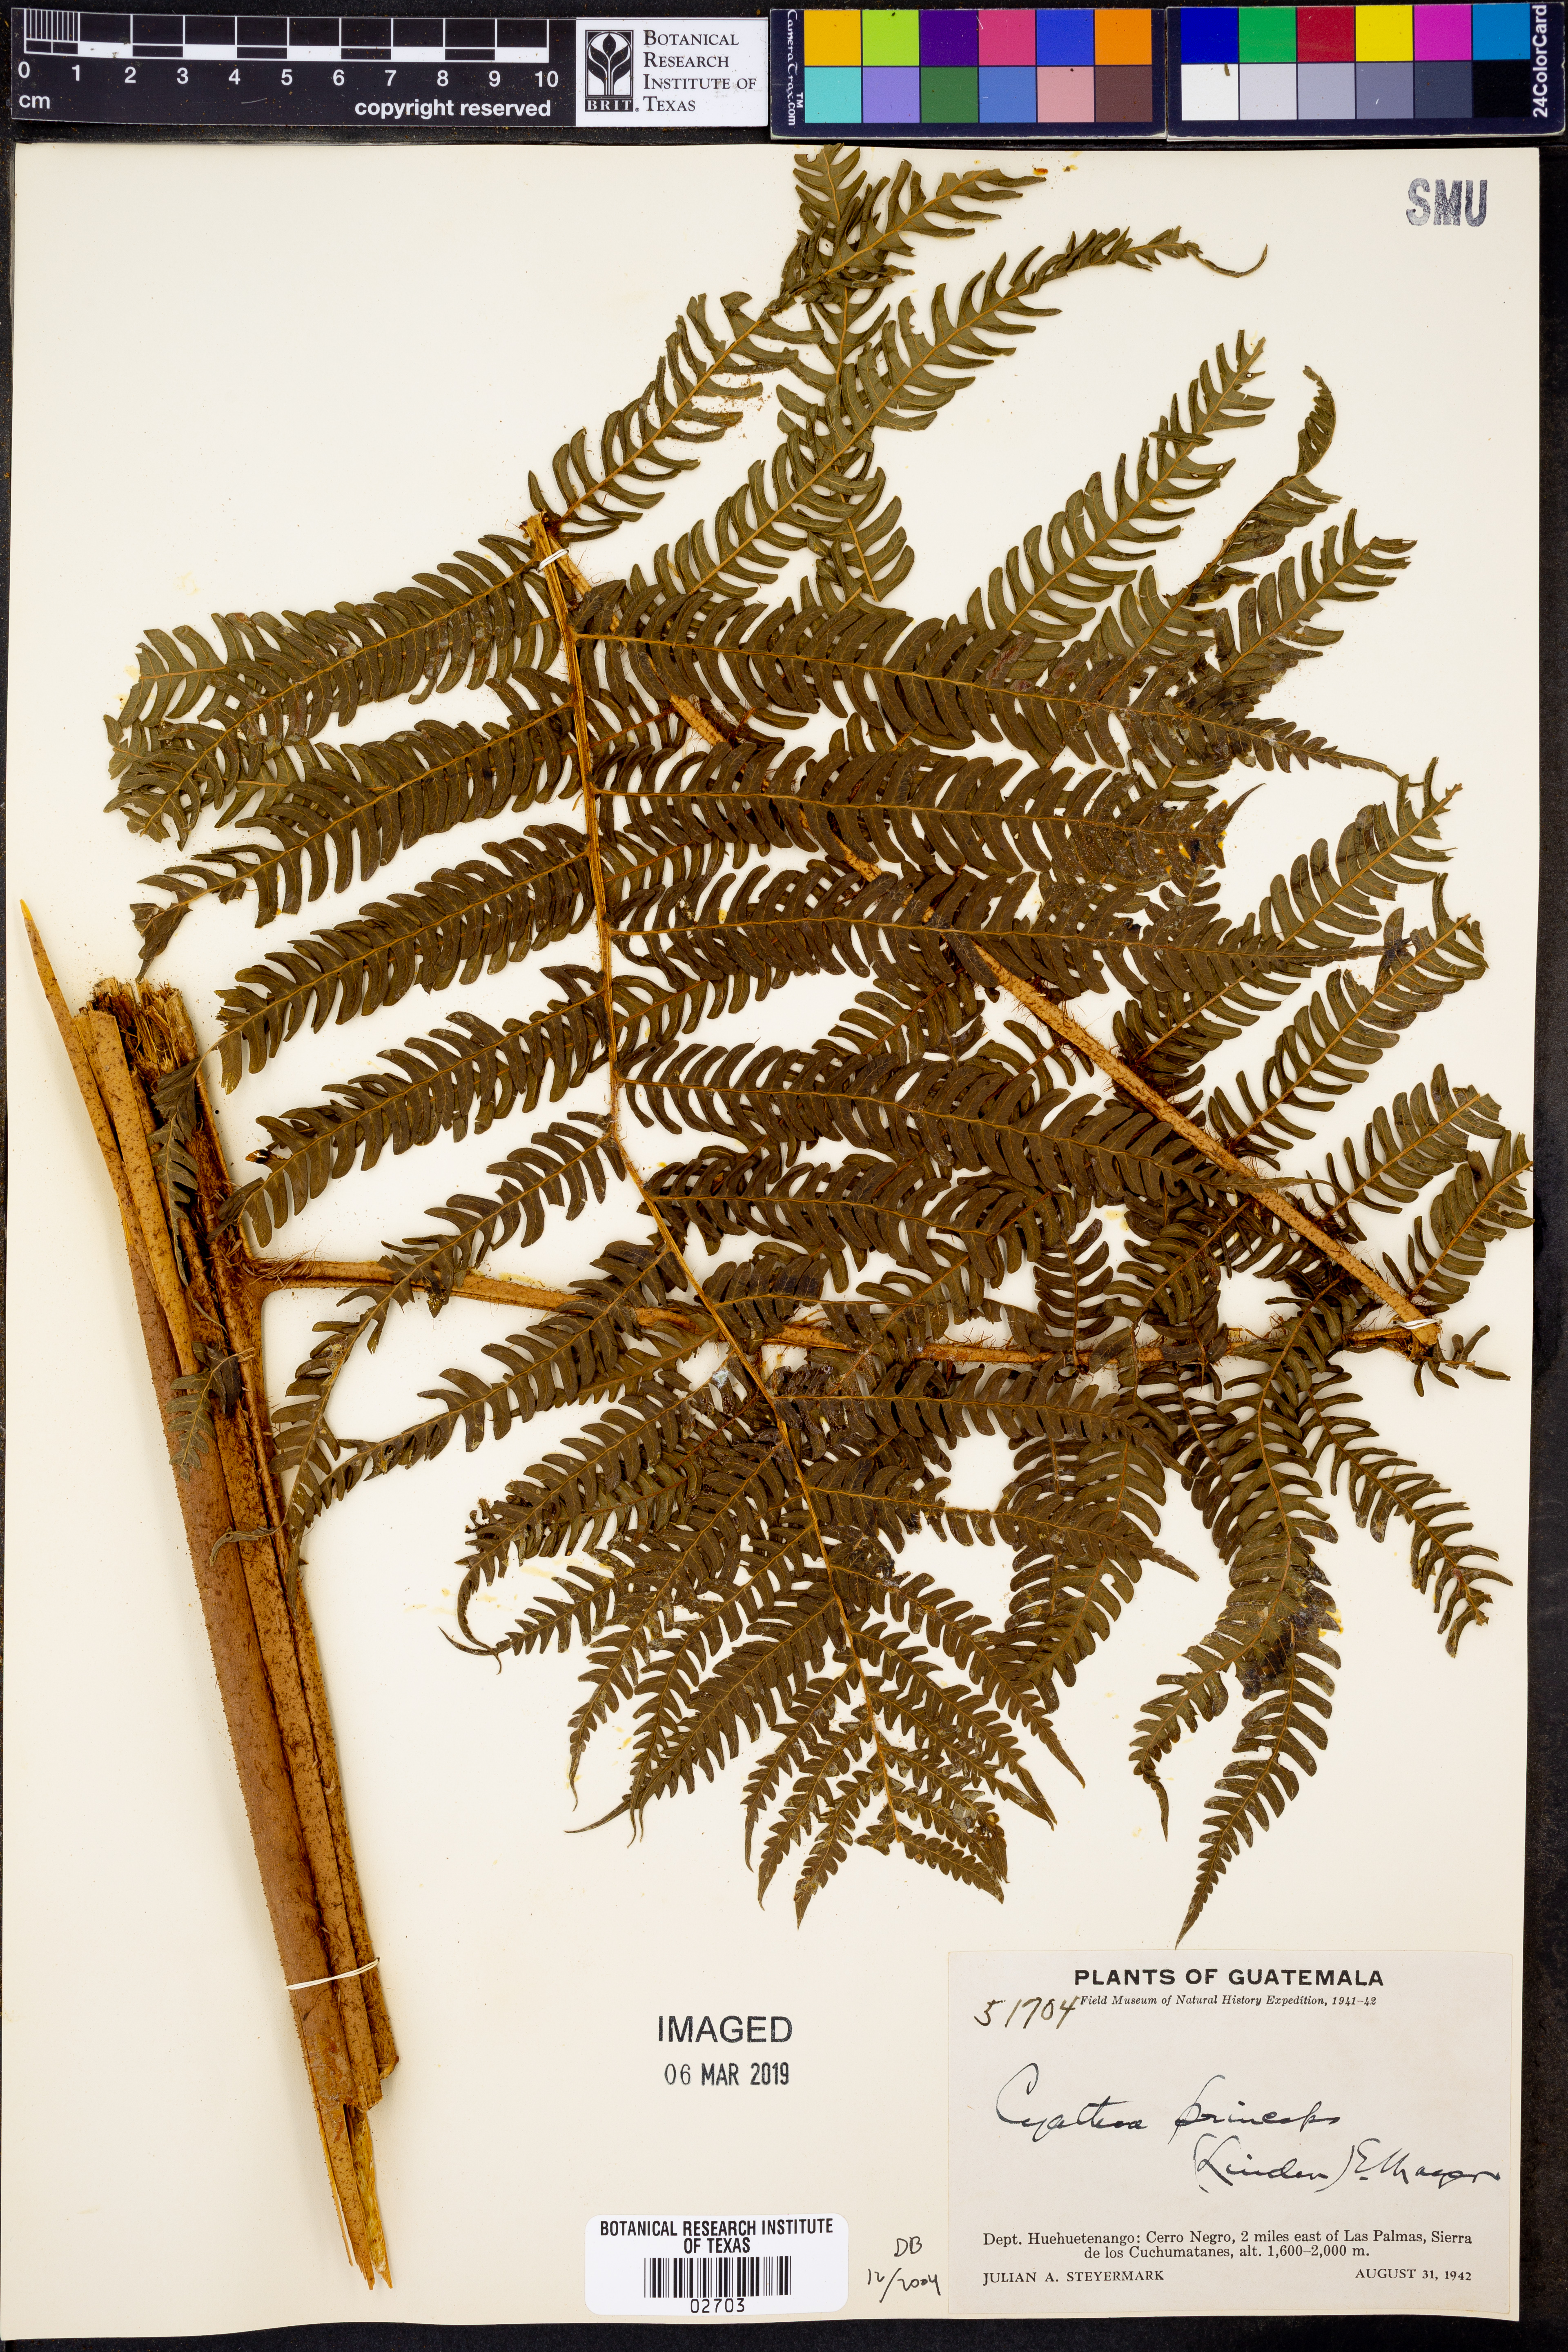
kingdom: Plantae
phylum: Tracheophyta
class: Polypodiopsida
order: Cyatheales
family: Cyatheaceae
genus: Sphaeropteris
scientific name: Sphaeropteris insignis
